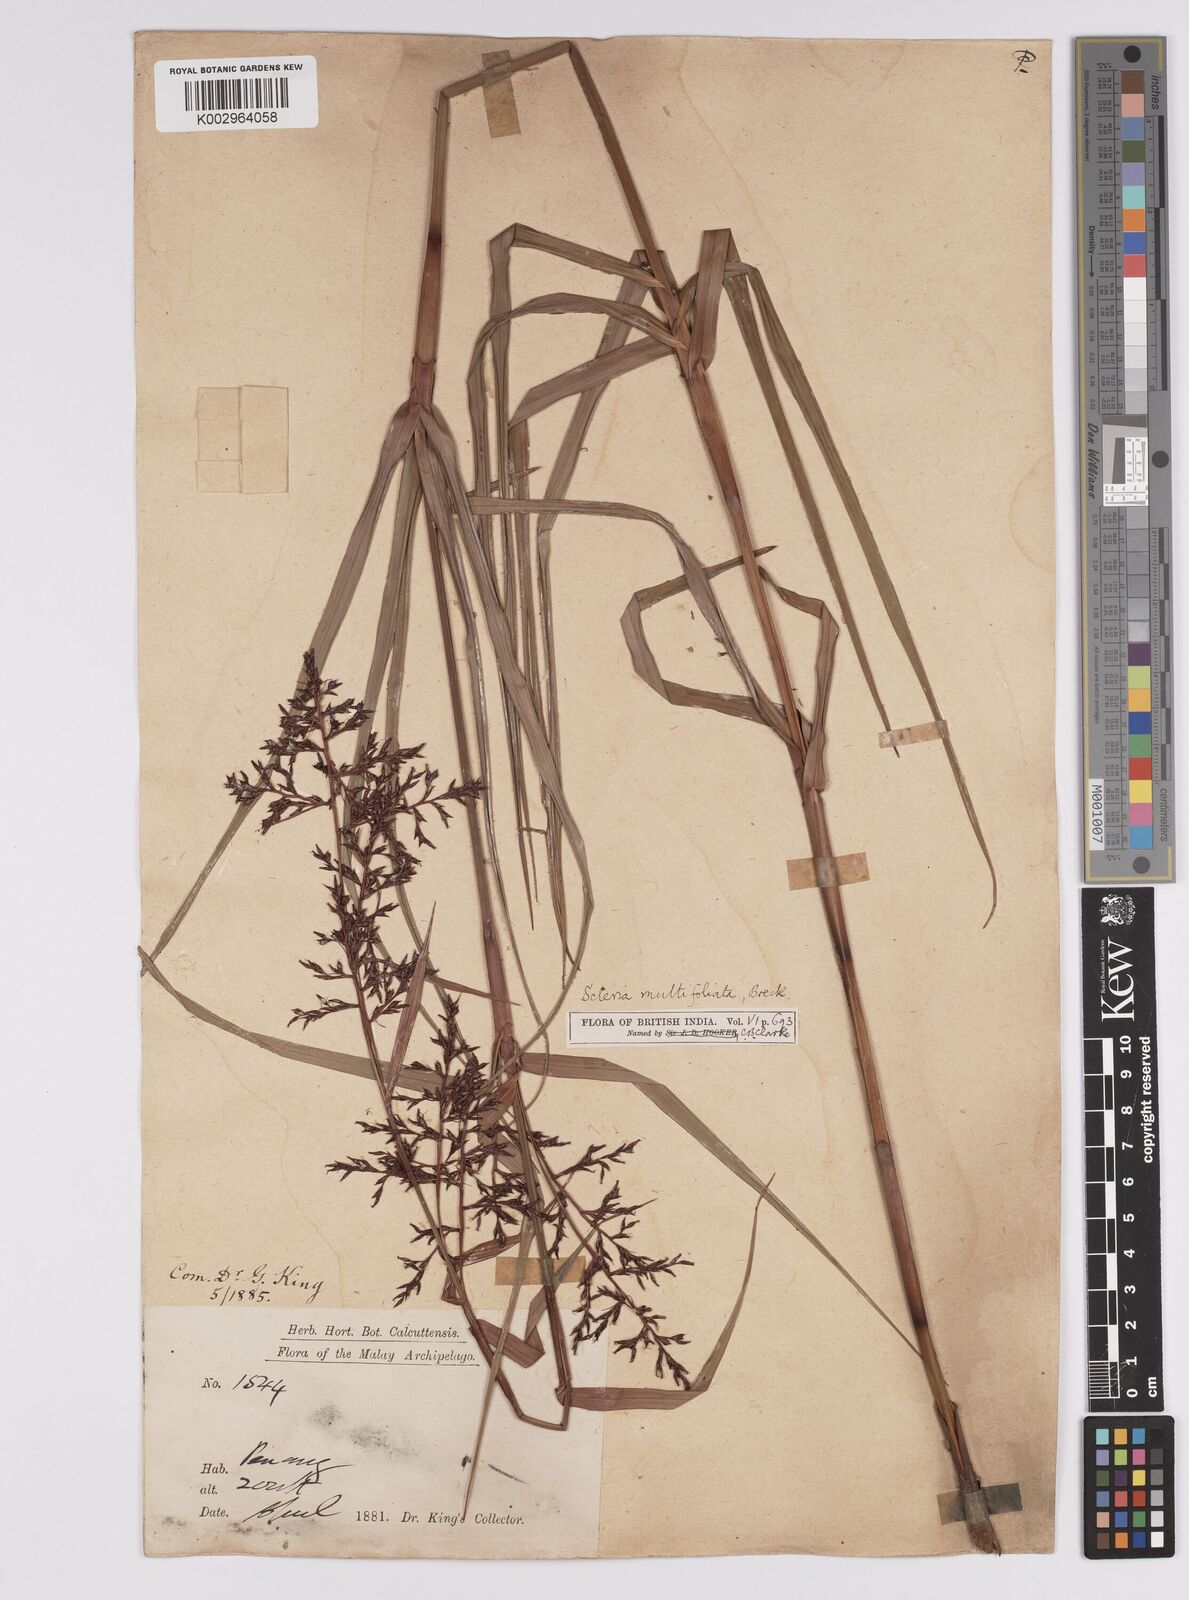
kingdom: Plantae
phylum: Tracheophyta
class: Liliopsida
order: Poales
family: Cyperaceae
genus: Scleria
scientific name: Scleria purpurascens
